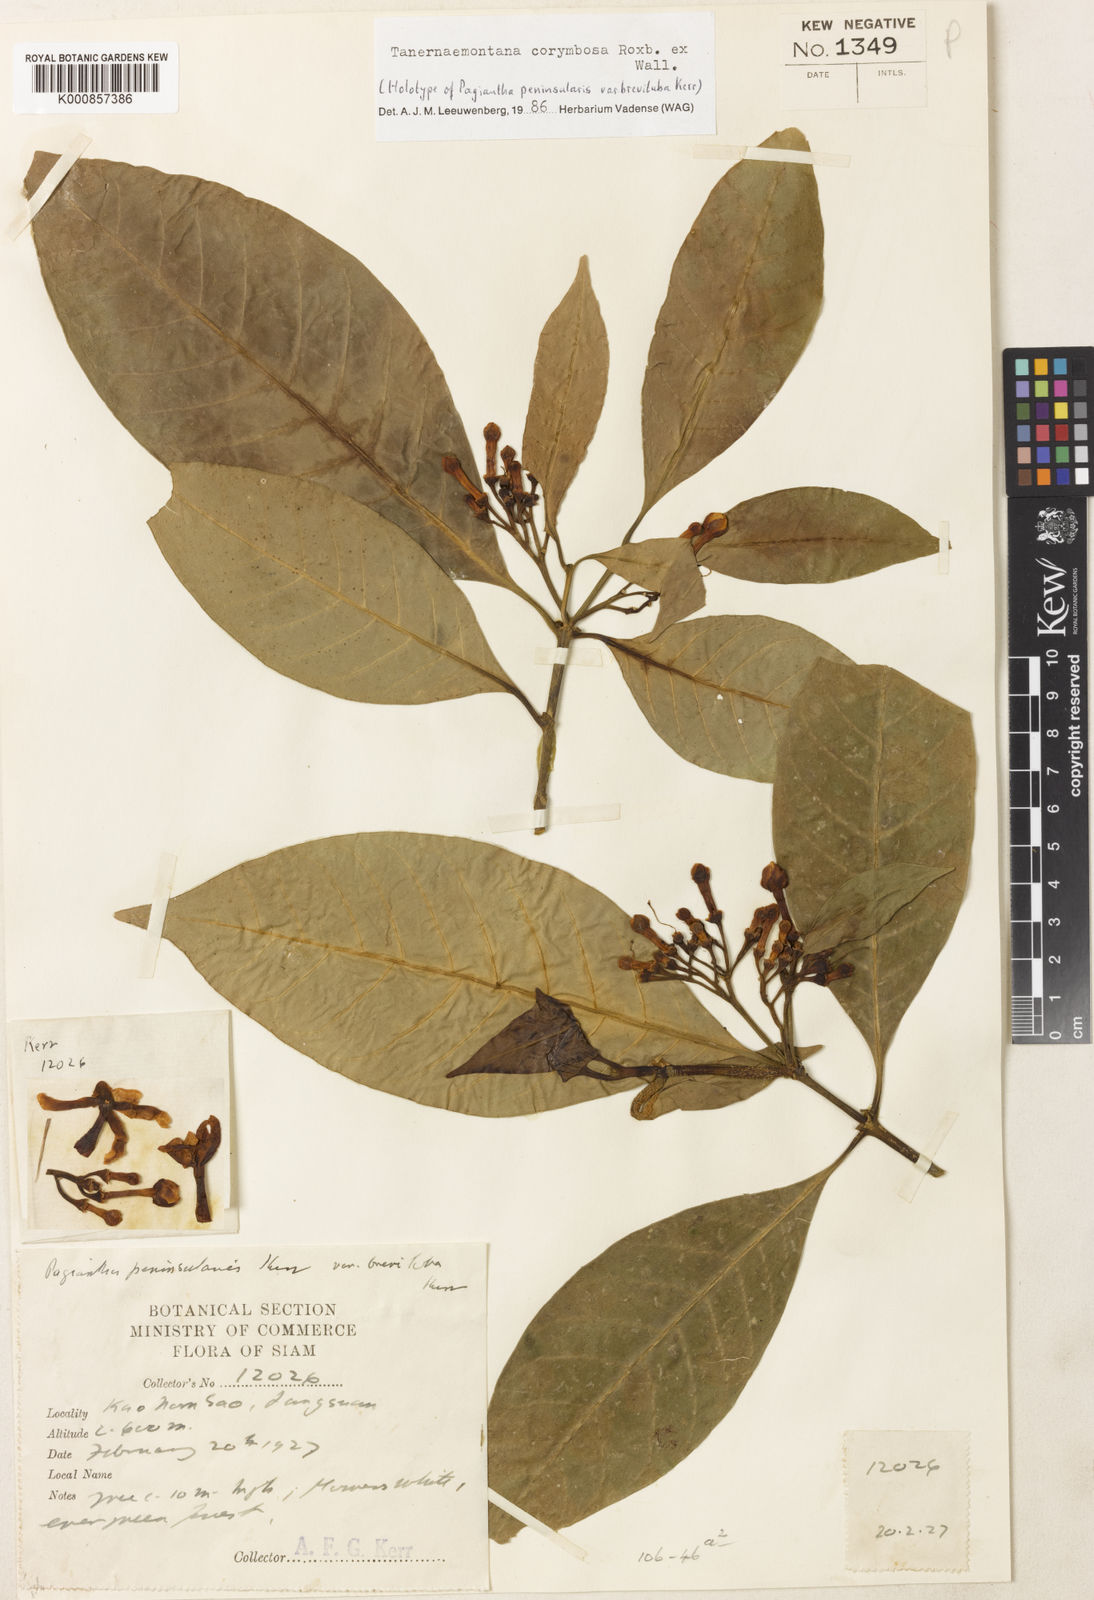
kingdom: Plantae
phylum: Tracheophyta
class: Magnoliopsida
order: Gentianales
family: Apocynaceae
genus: Tabernaemontana
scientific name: Tabernaemontana corymbosa
